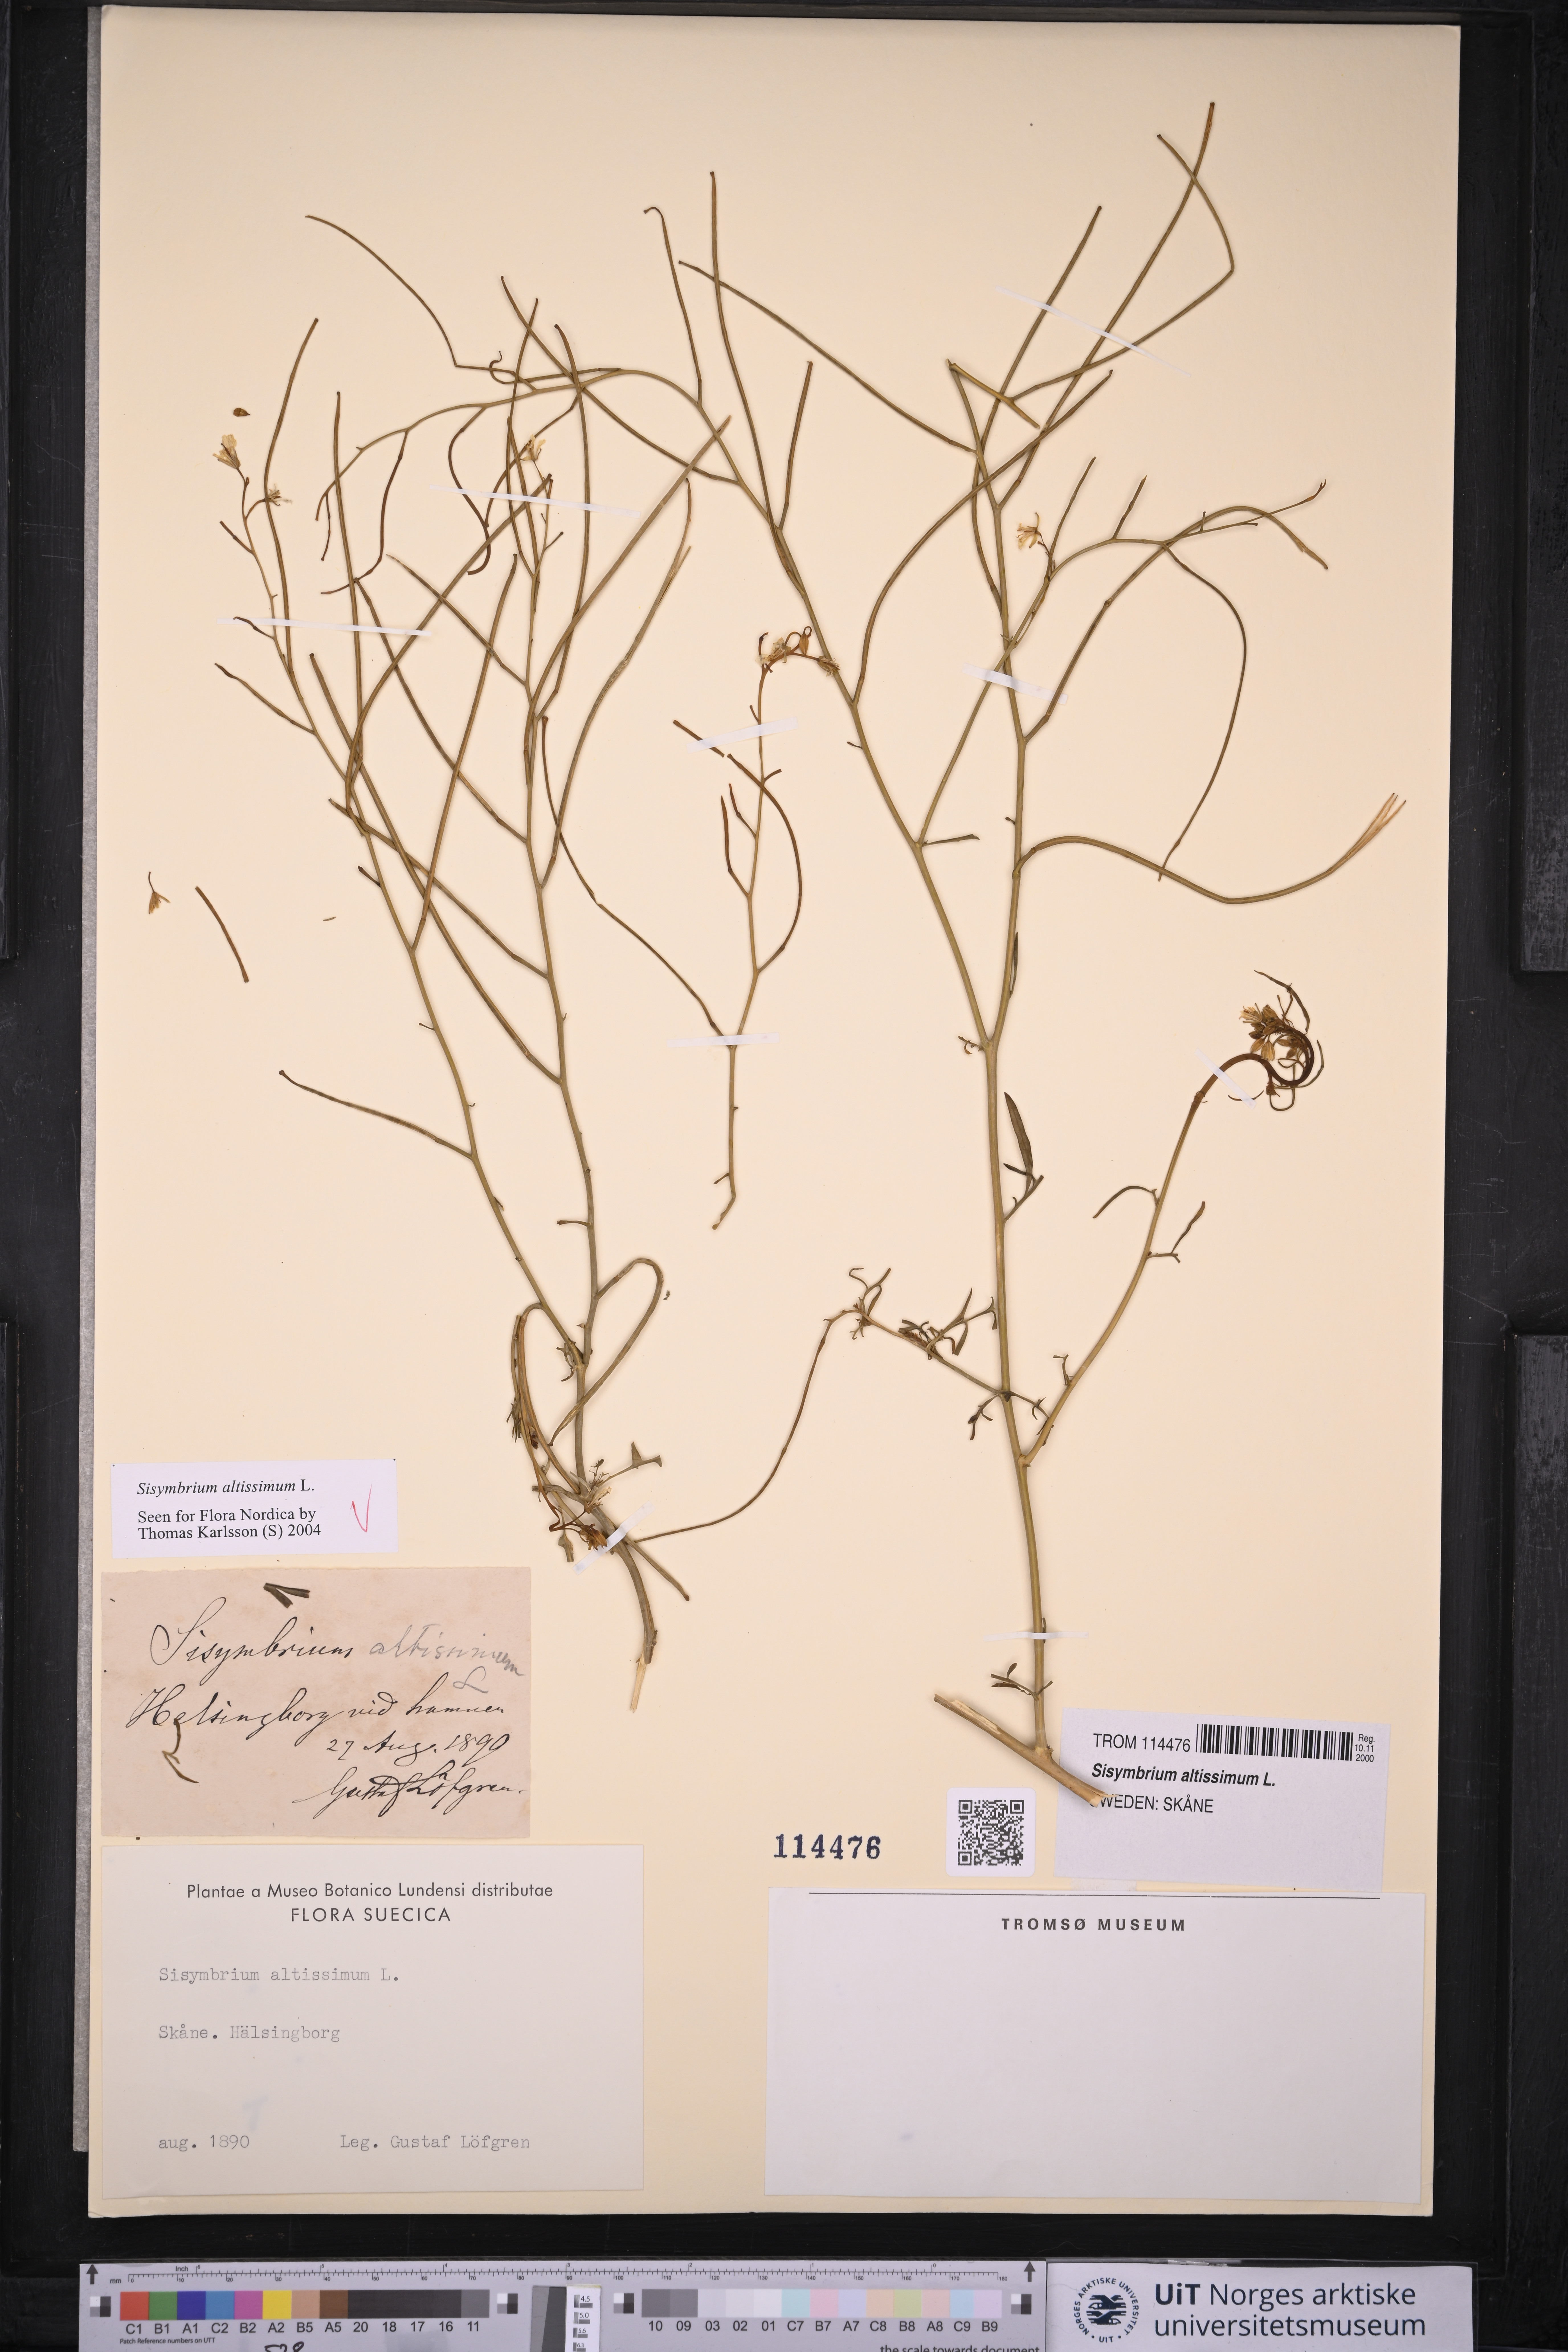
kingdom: Plantae
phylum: Tracheophyta
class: Magnoliopsida
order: Brassicales
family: Brassicaceae
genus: Sisymbrium
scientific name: Sisymbrium altissimum
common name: Tall rocket
